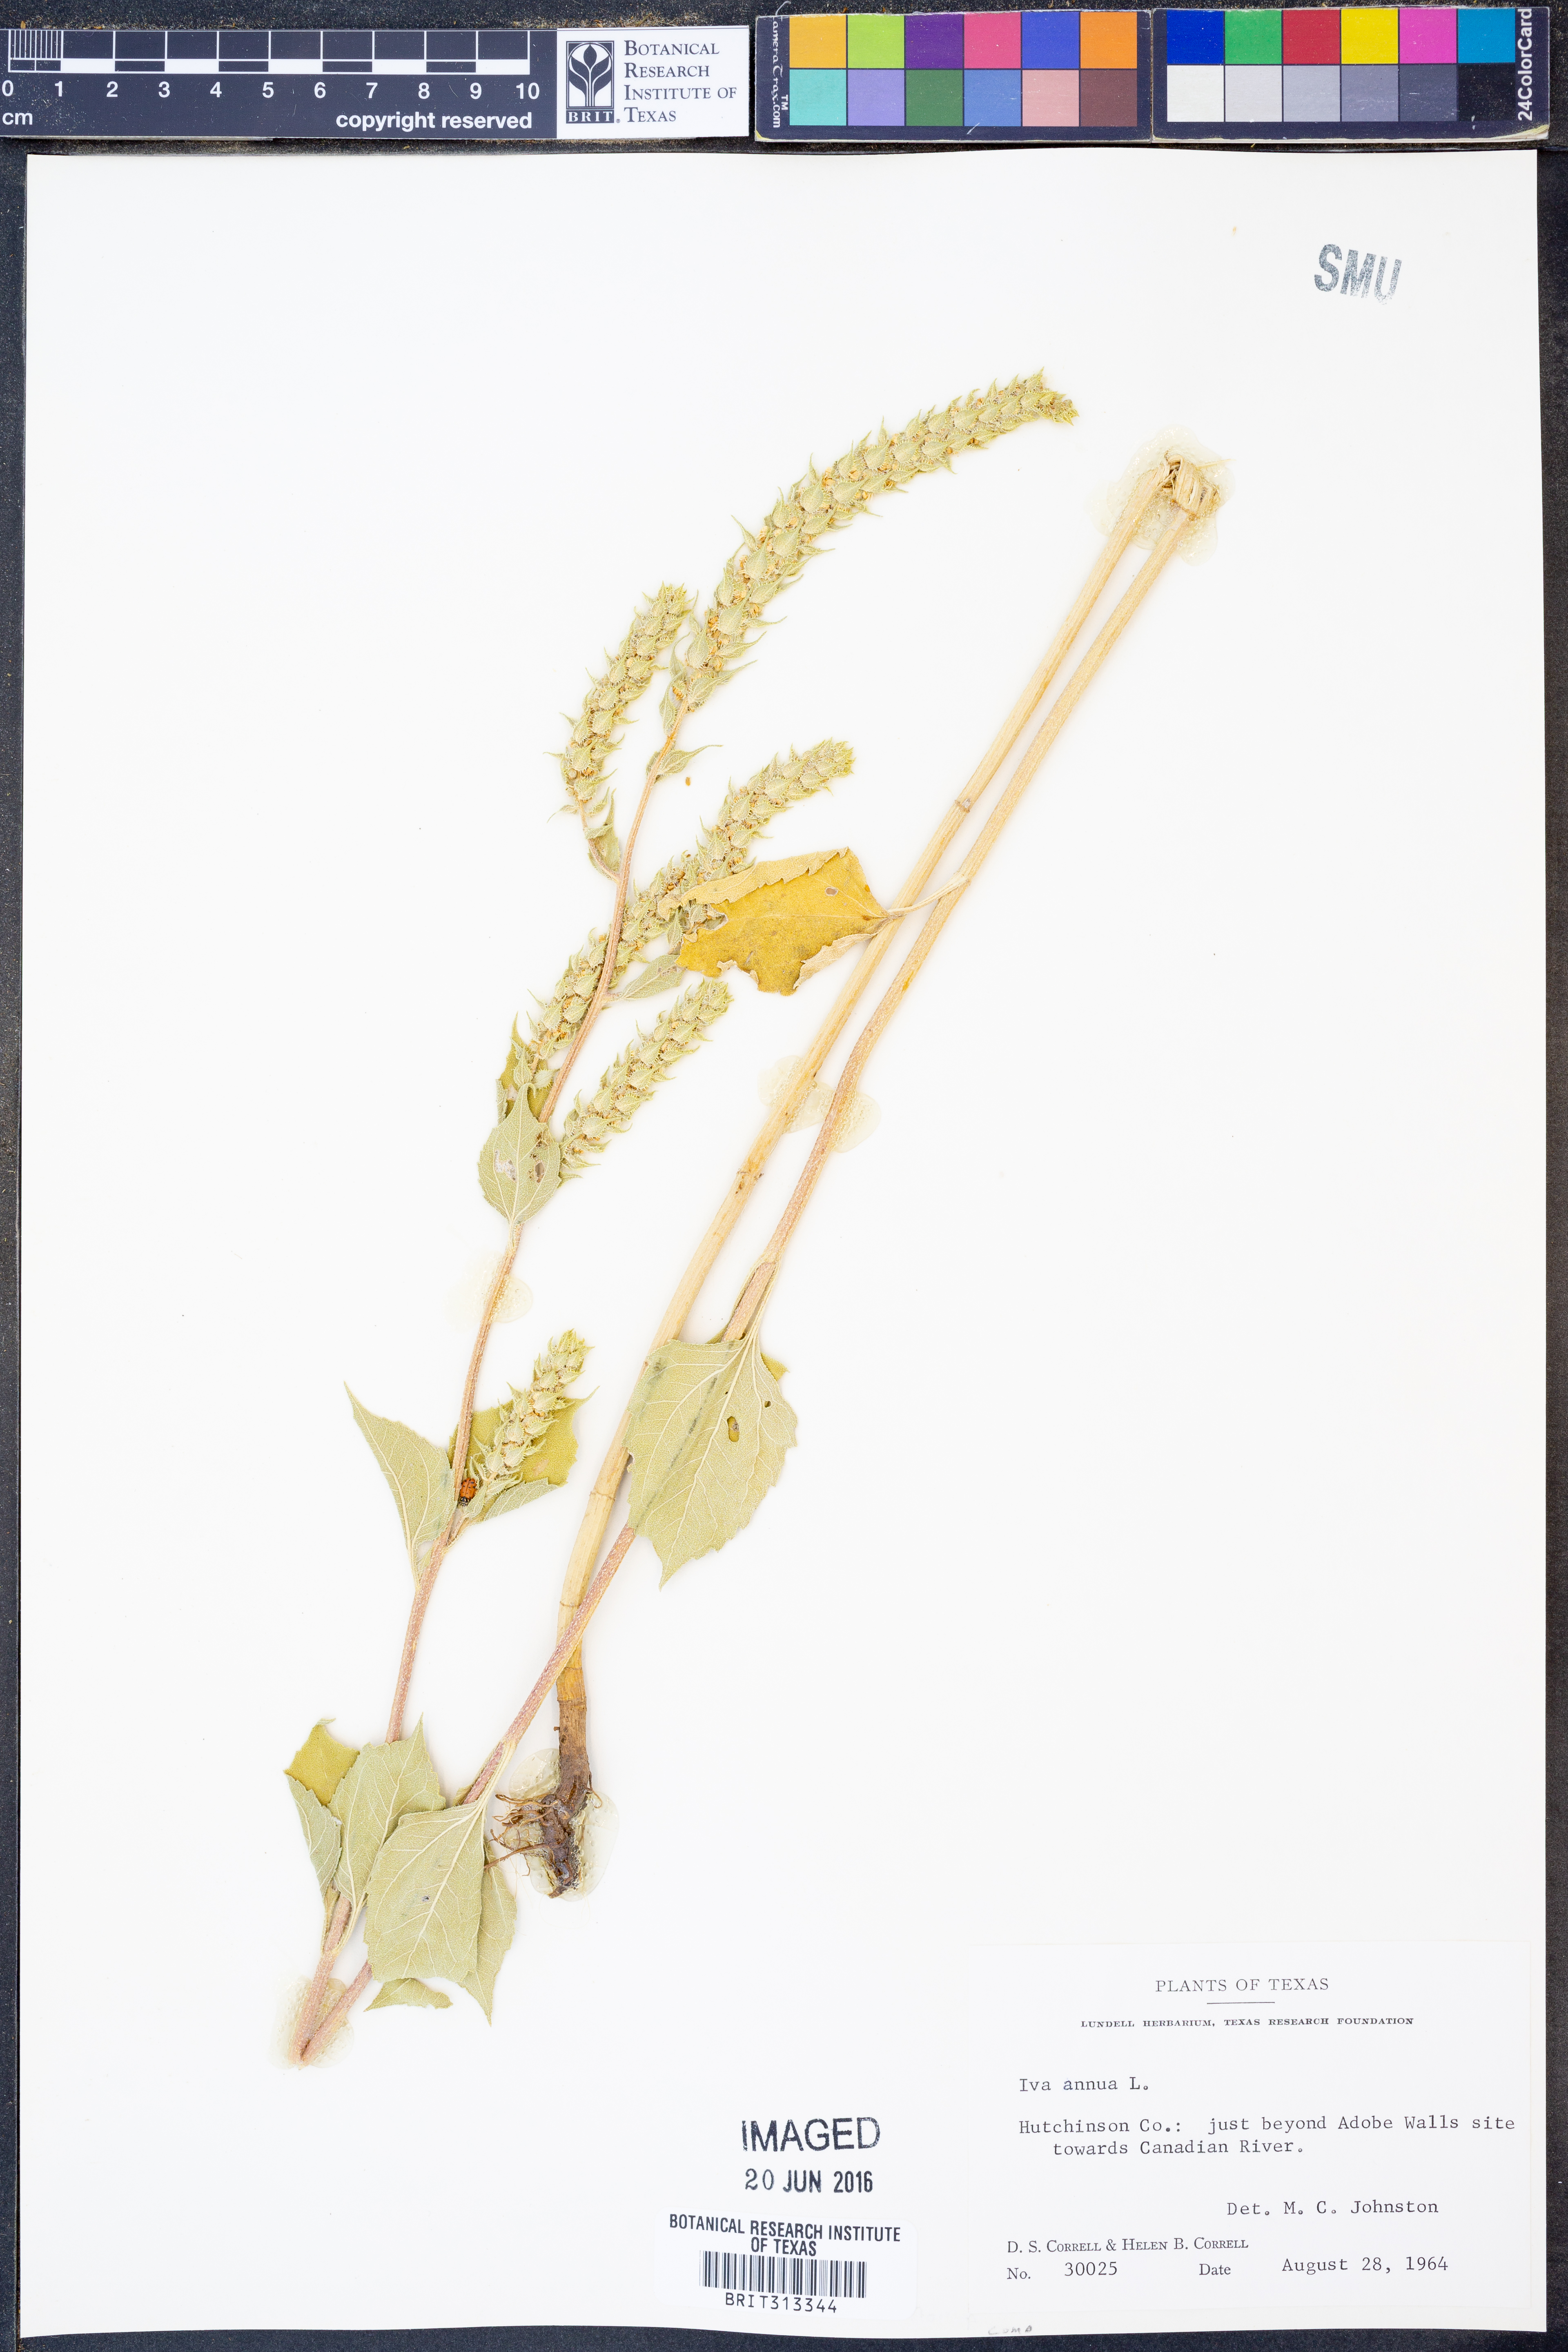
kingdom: Plantae
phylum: Tracheophyta
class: Magnoliopsida
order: Asterales
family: Asteraceae
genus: Iva
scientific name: Iva annua
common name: Marsh-elder
